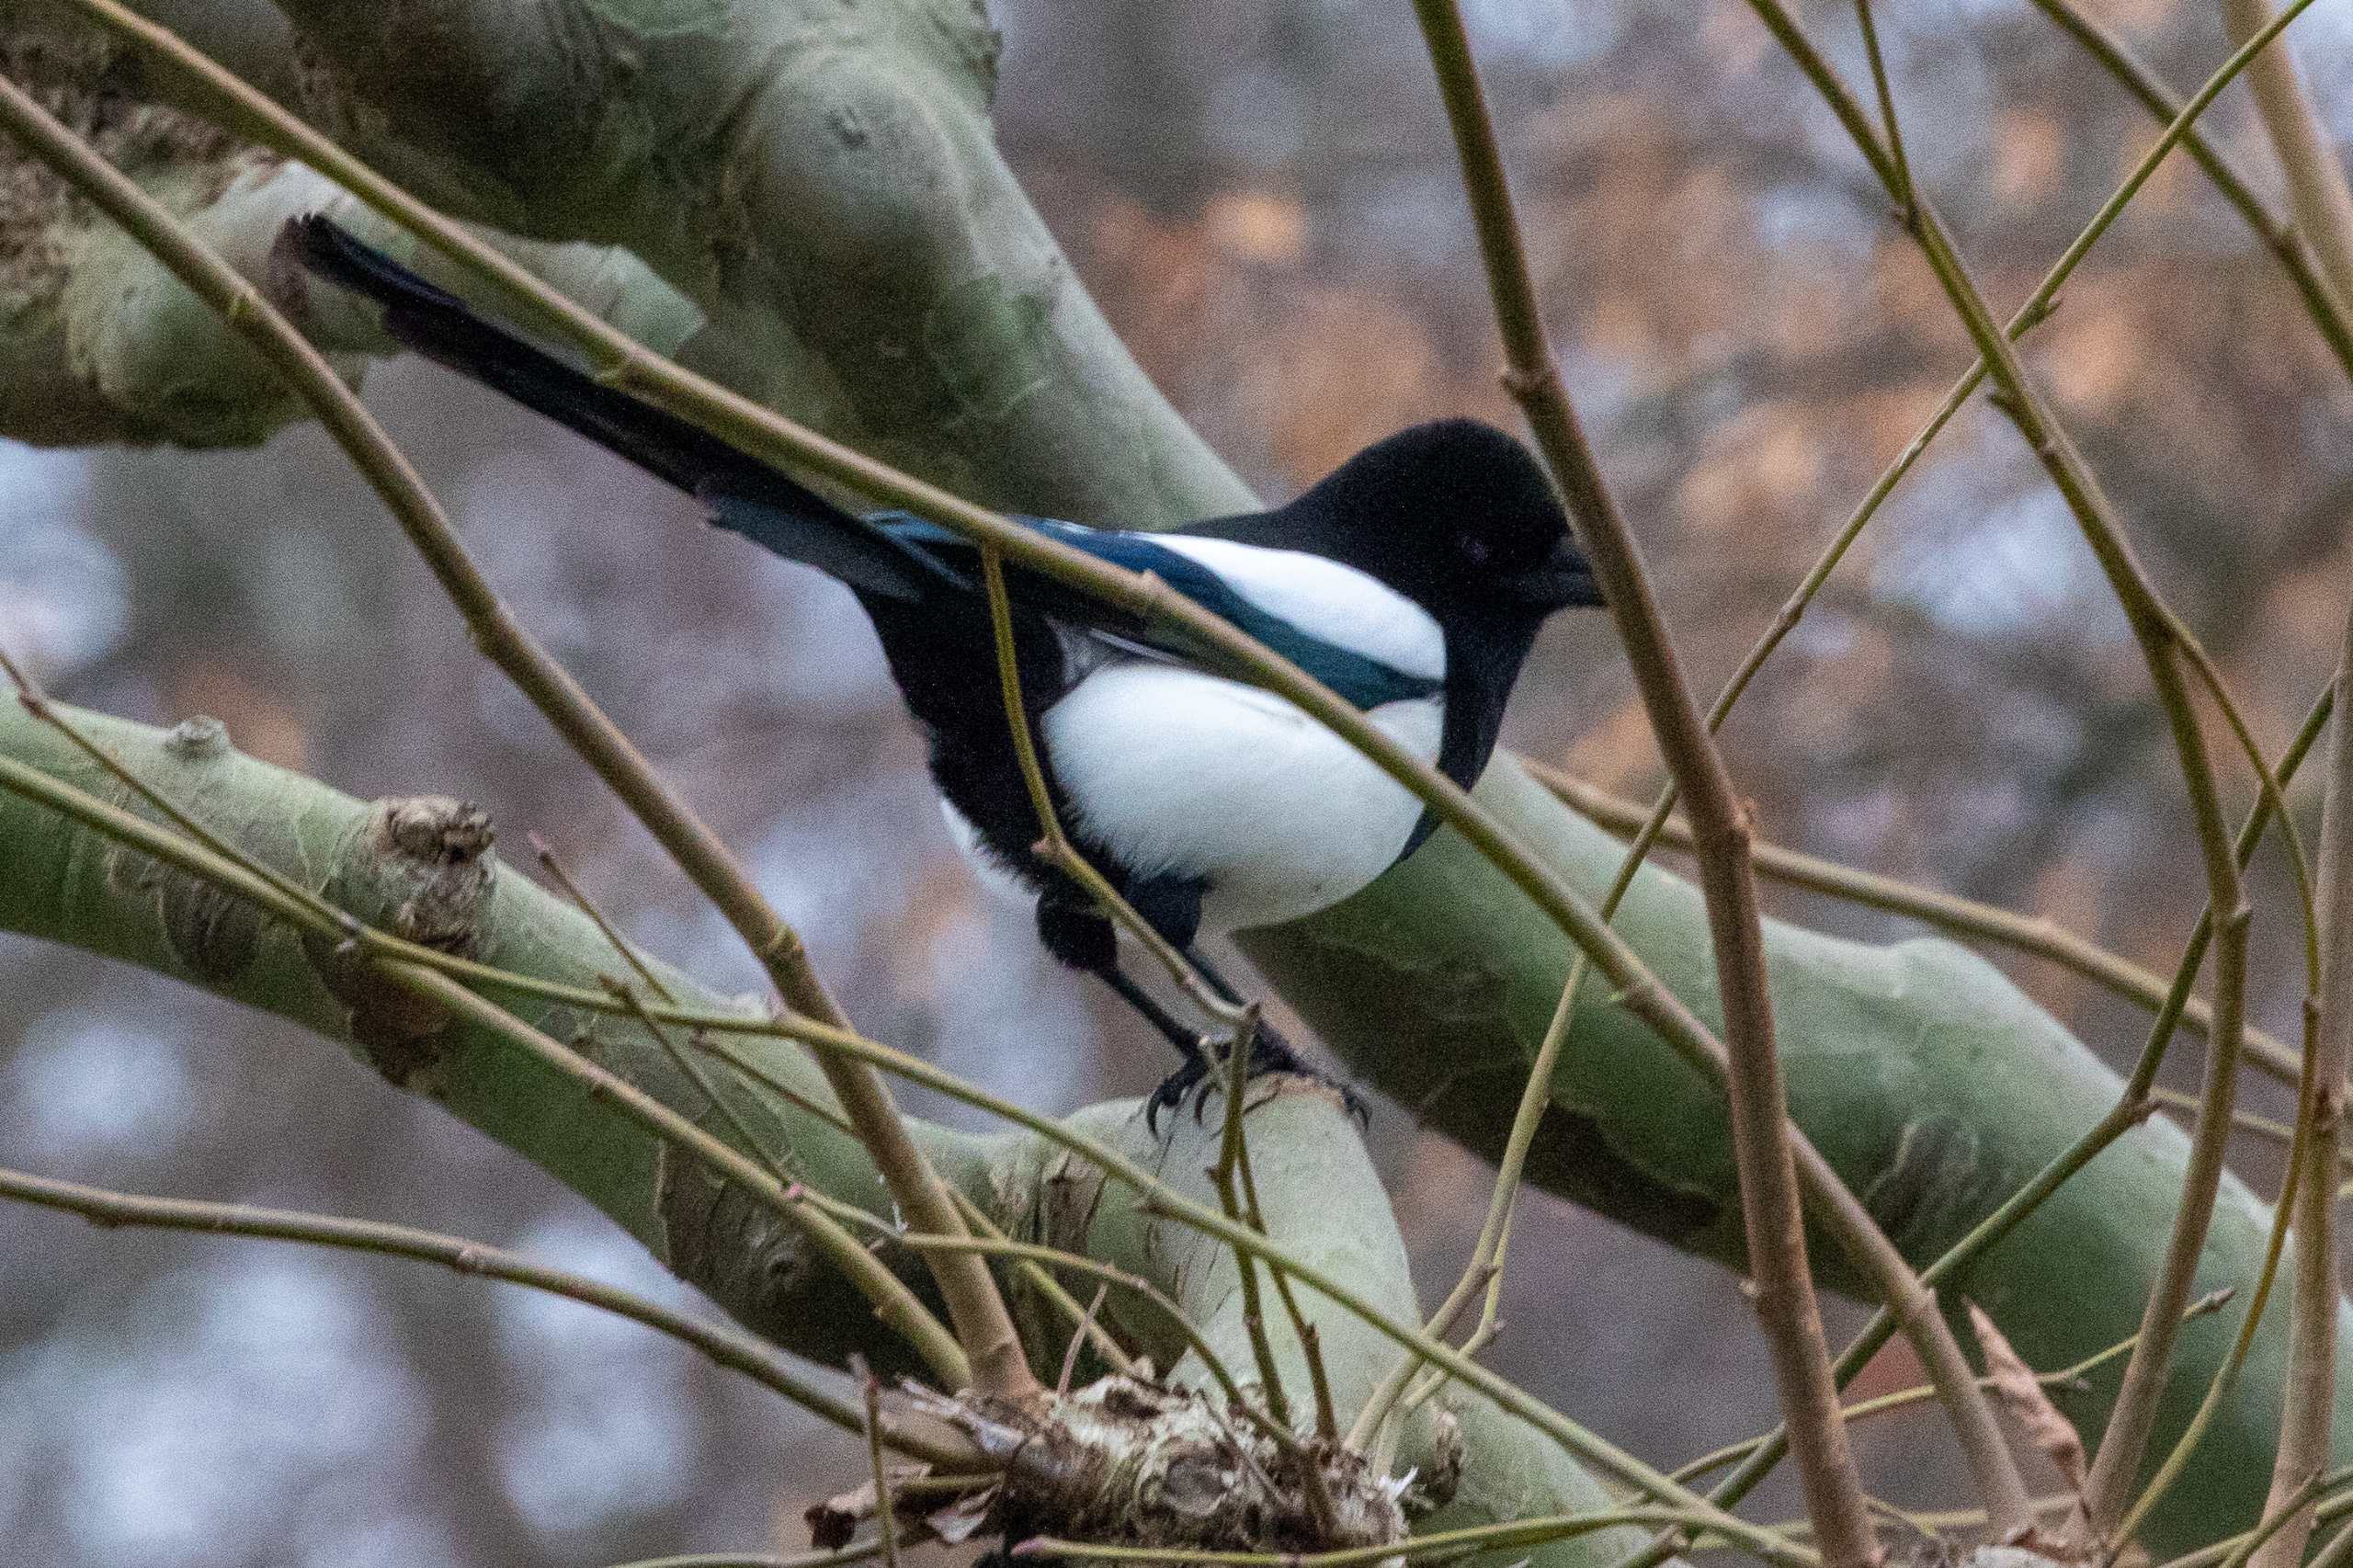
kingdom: Animalia
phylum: Chordata
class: Aves
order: Passeriformes
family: Corvidae
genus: Pica
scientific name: Pica pica
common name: Husskade
